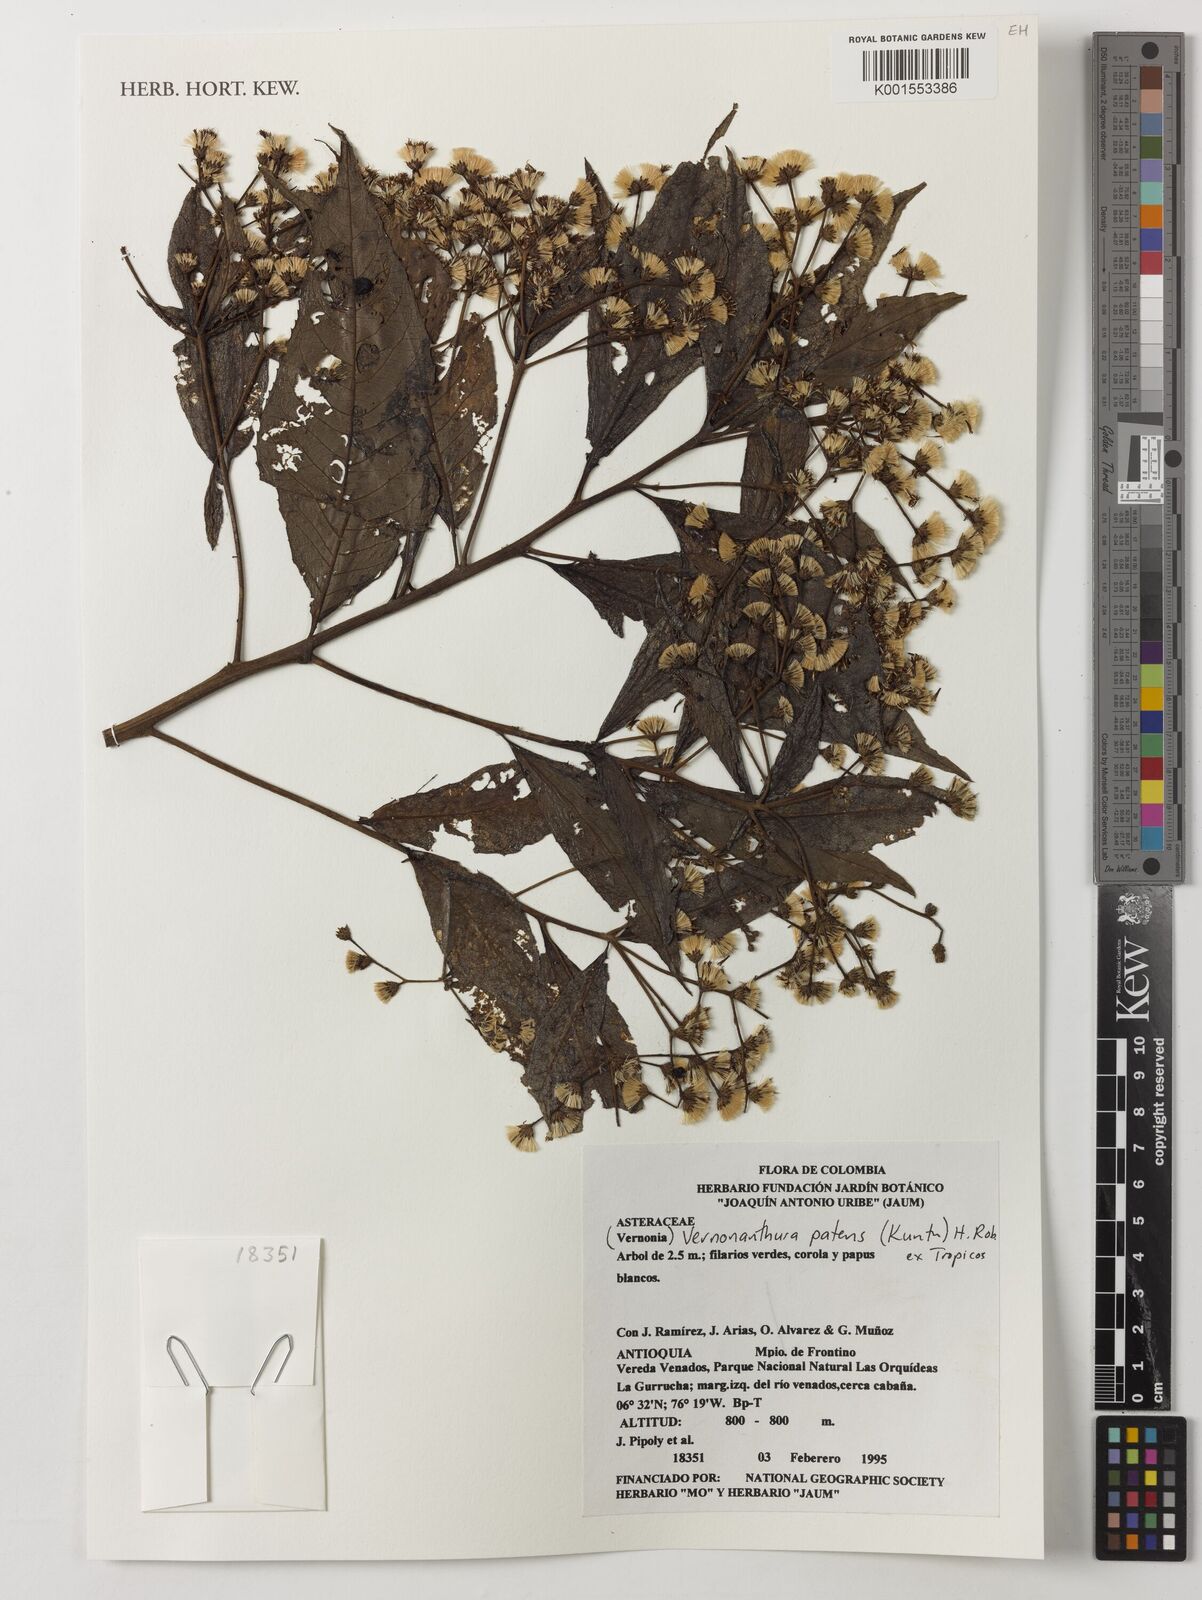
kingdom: Plantae
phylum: Tracheophyta
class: Magnoliopsida
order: Asterales
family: Asteraceae
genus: Vernonanthura
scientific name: Vernonanthura patens
